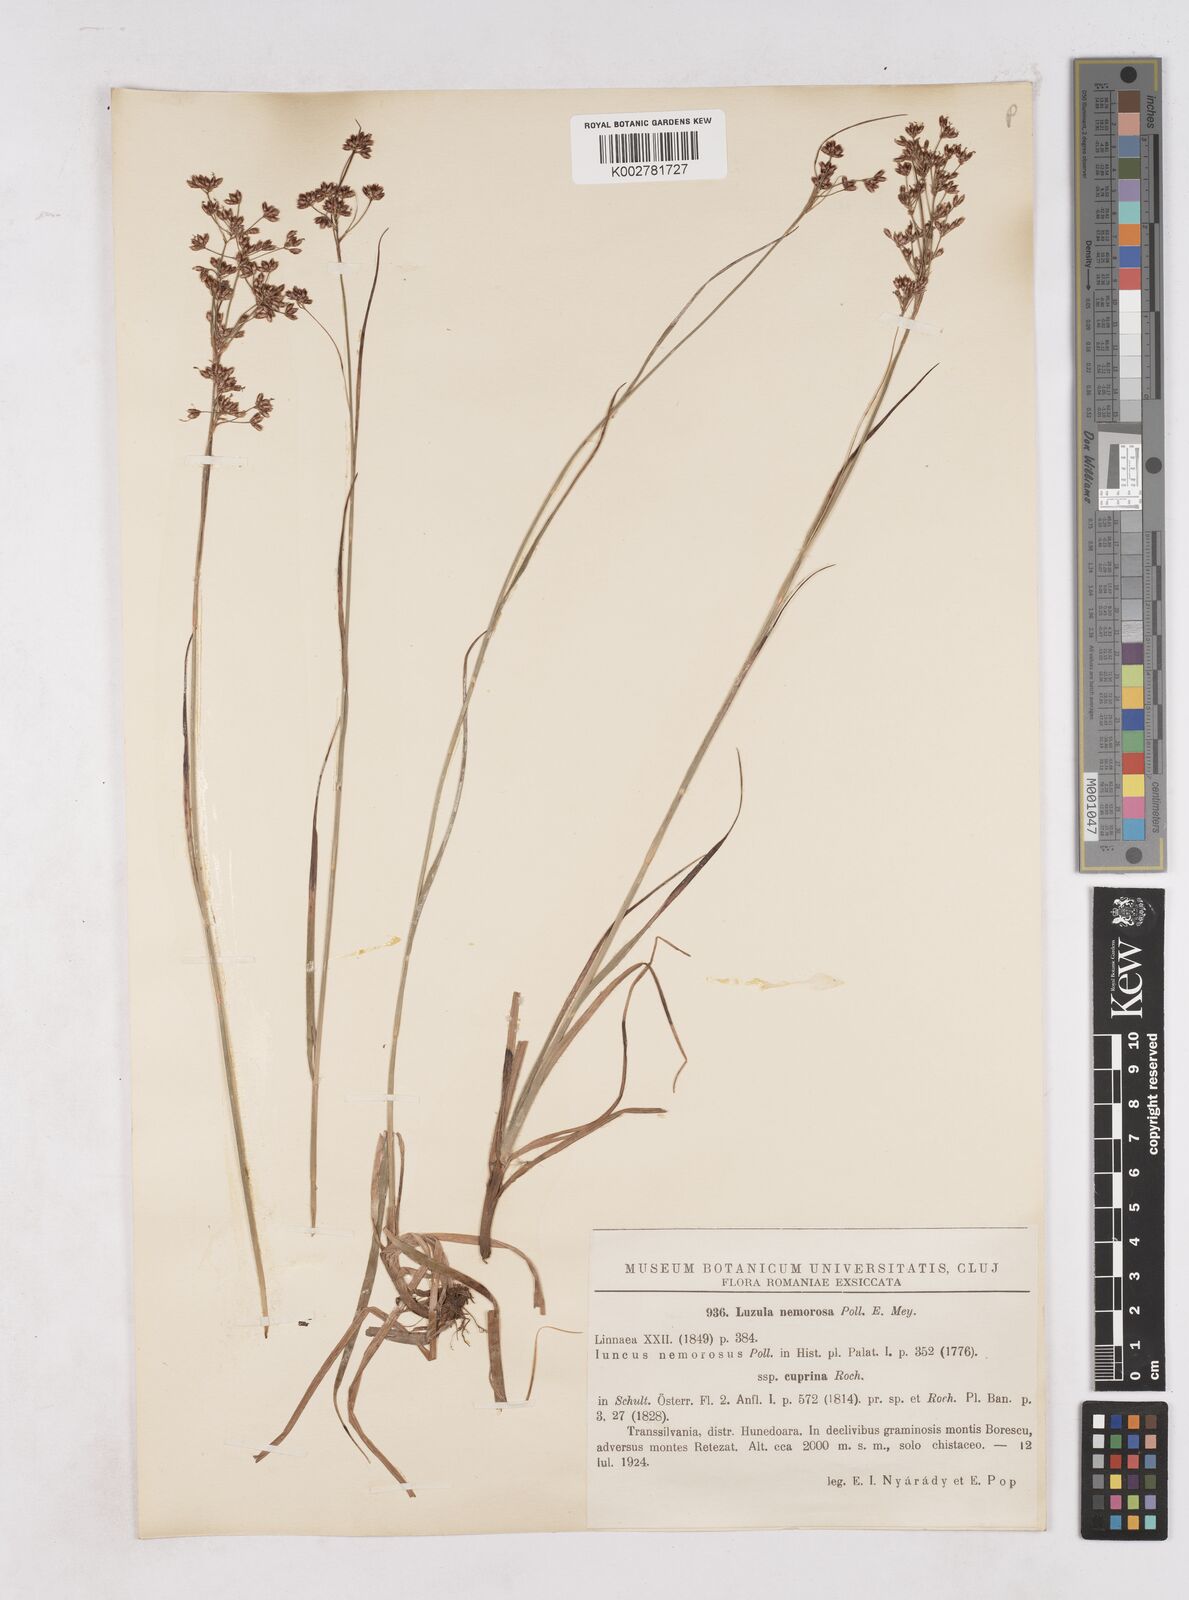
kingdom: Plantae
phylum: Tracheophyta
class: Liliopsida
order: Poales
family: Juncaceae
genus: Luzula
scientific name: Luzula luzuloides
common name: White wood-rush
